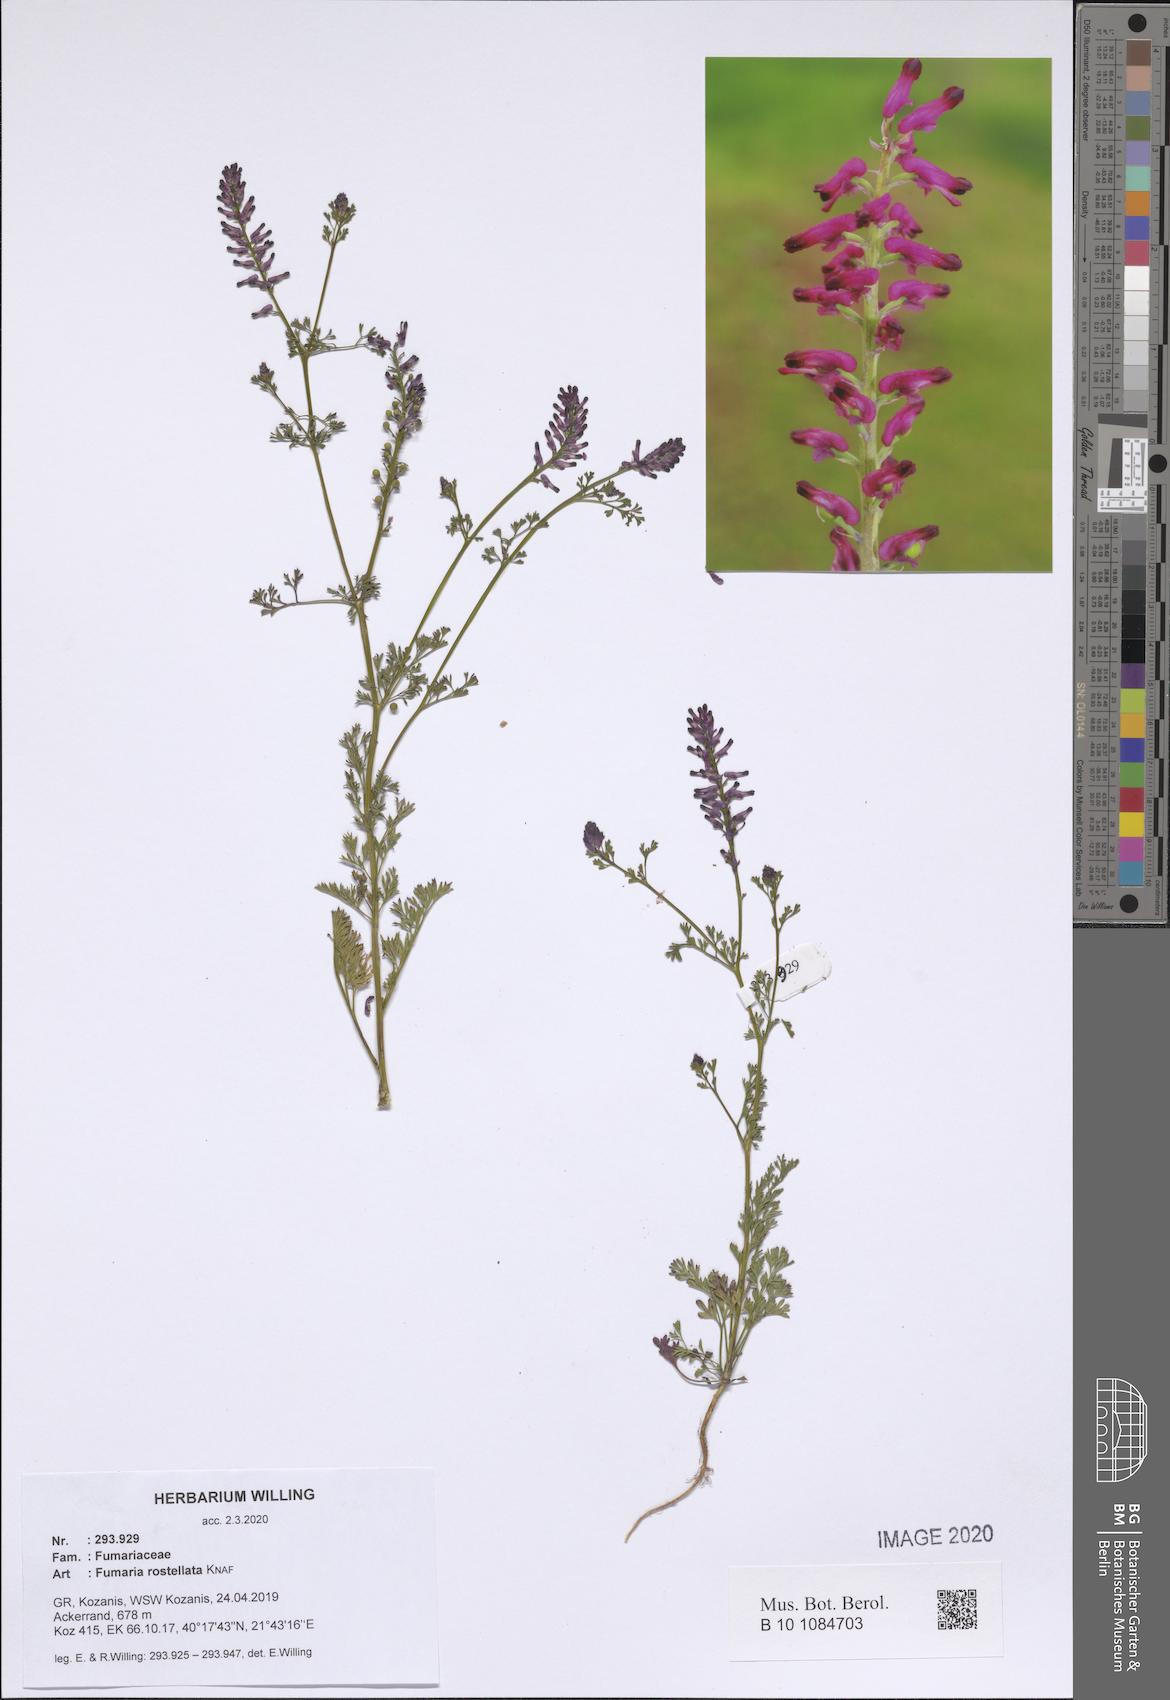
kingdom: Plantae
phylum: Tracheophyta
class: Magnoliopsida
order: Ranunculales
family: Papaveraceae
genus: Fumaria
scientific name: Fumaria rostellata
